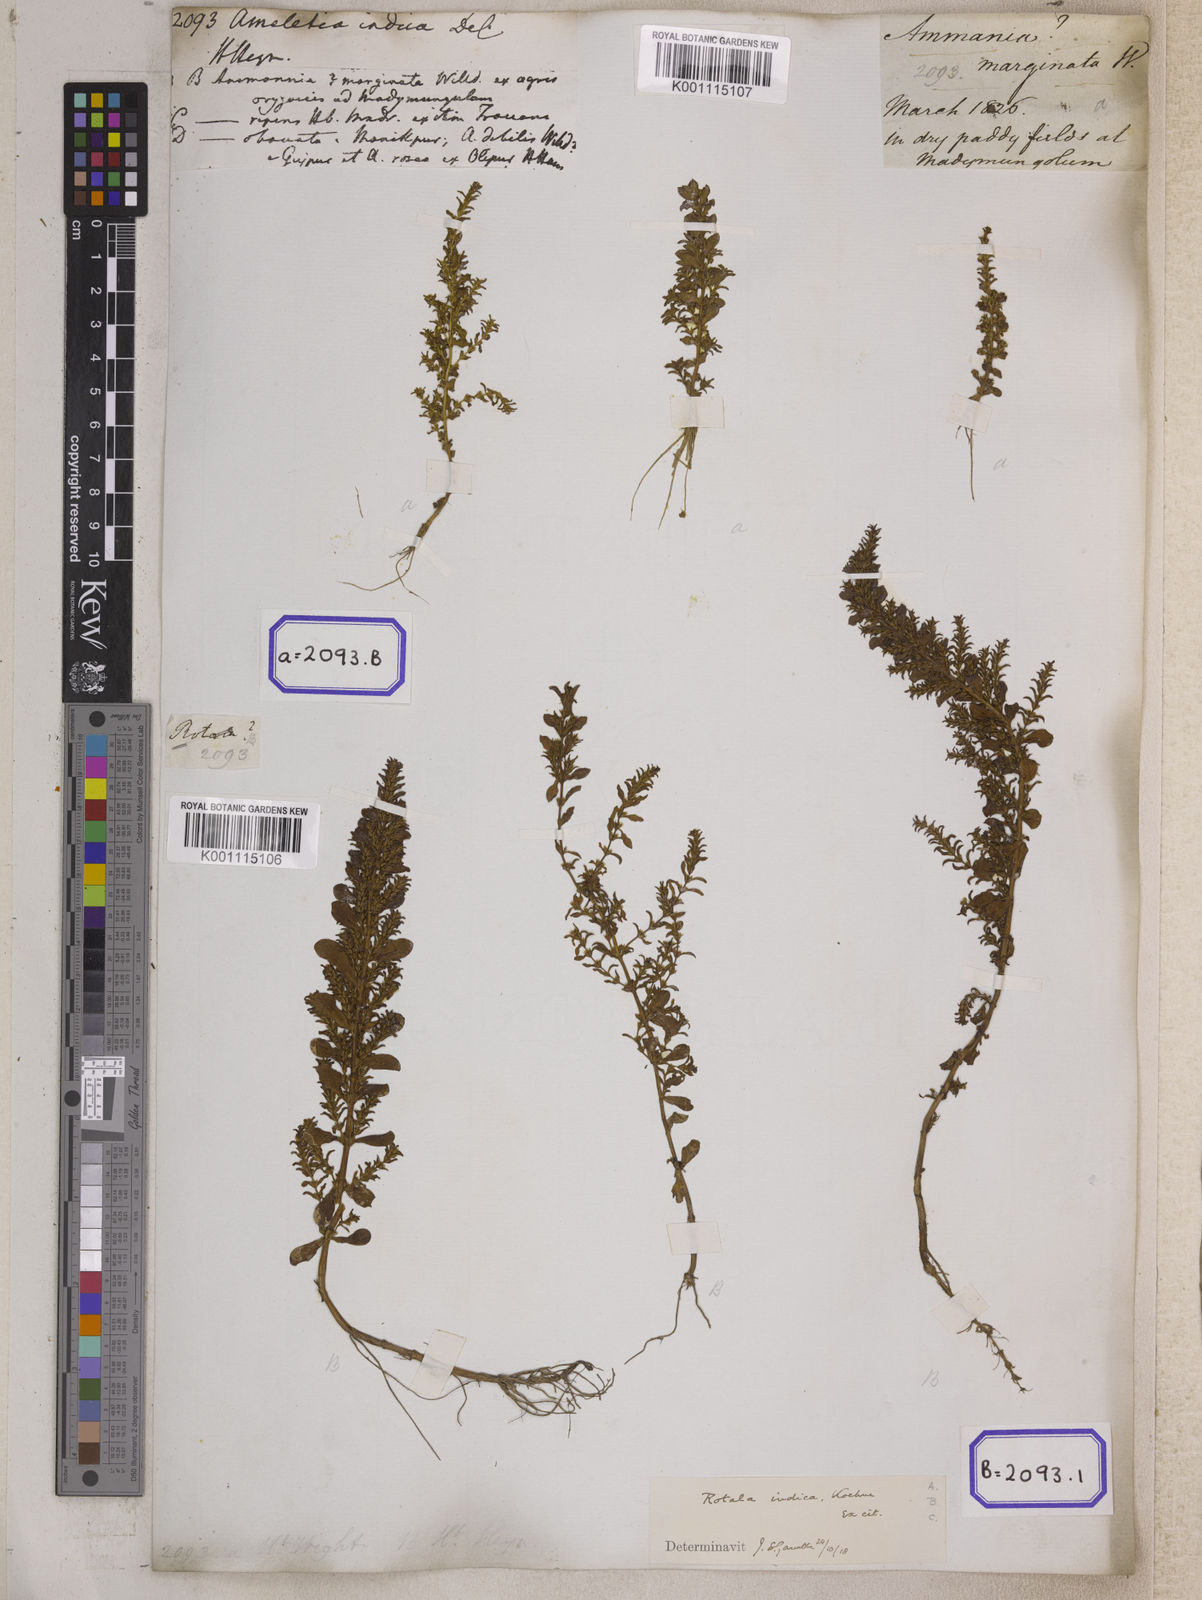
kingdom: Plantae
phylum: Tracheophyta
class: Magnoliopsida
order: Myrtales
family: Lythraceae
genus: Rotala
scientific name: Rotala indica
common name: Indian toothcup
